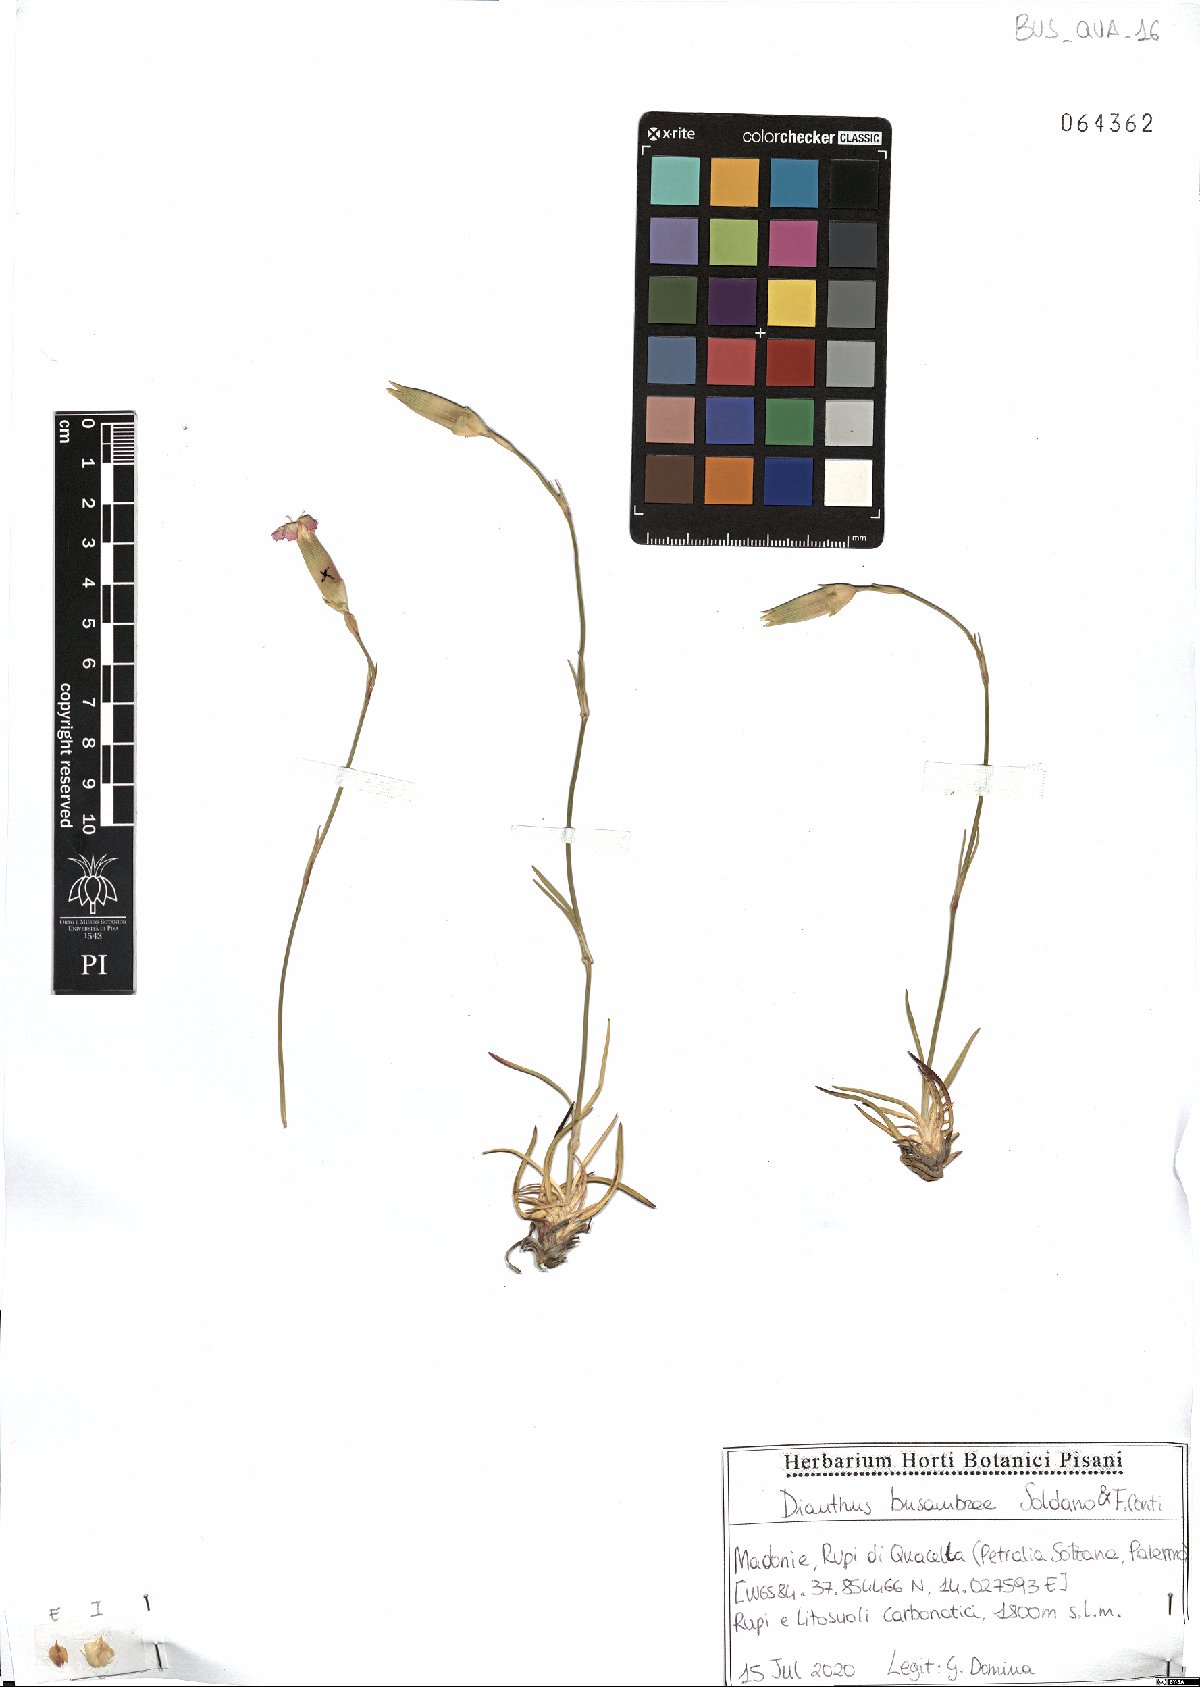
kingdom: Plantae
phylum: Tracheophyta
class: Magnoliopsida
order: Caryophyllales
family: Caryophyllaceae
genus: Dianthus
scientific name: Dianthus busambrae
